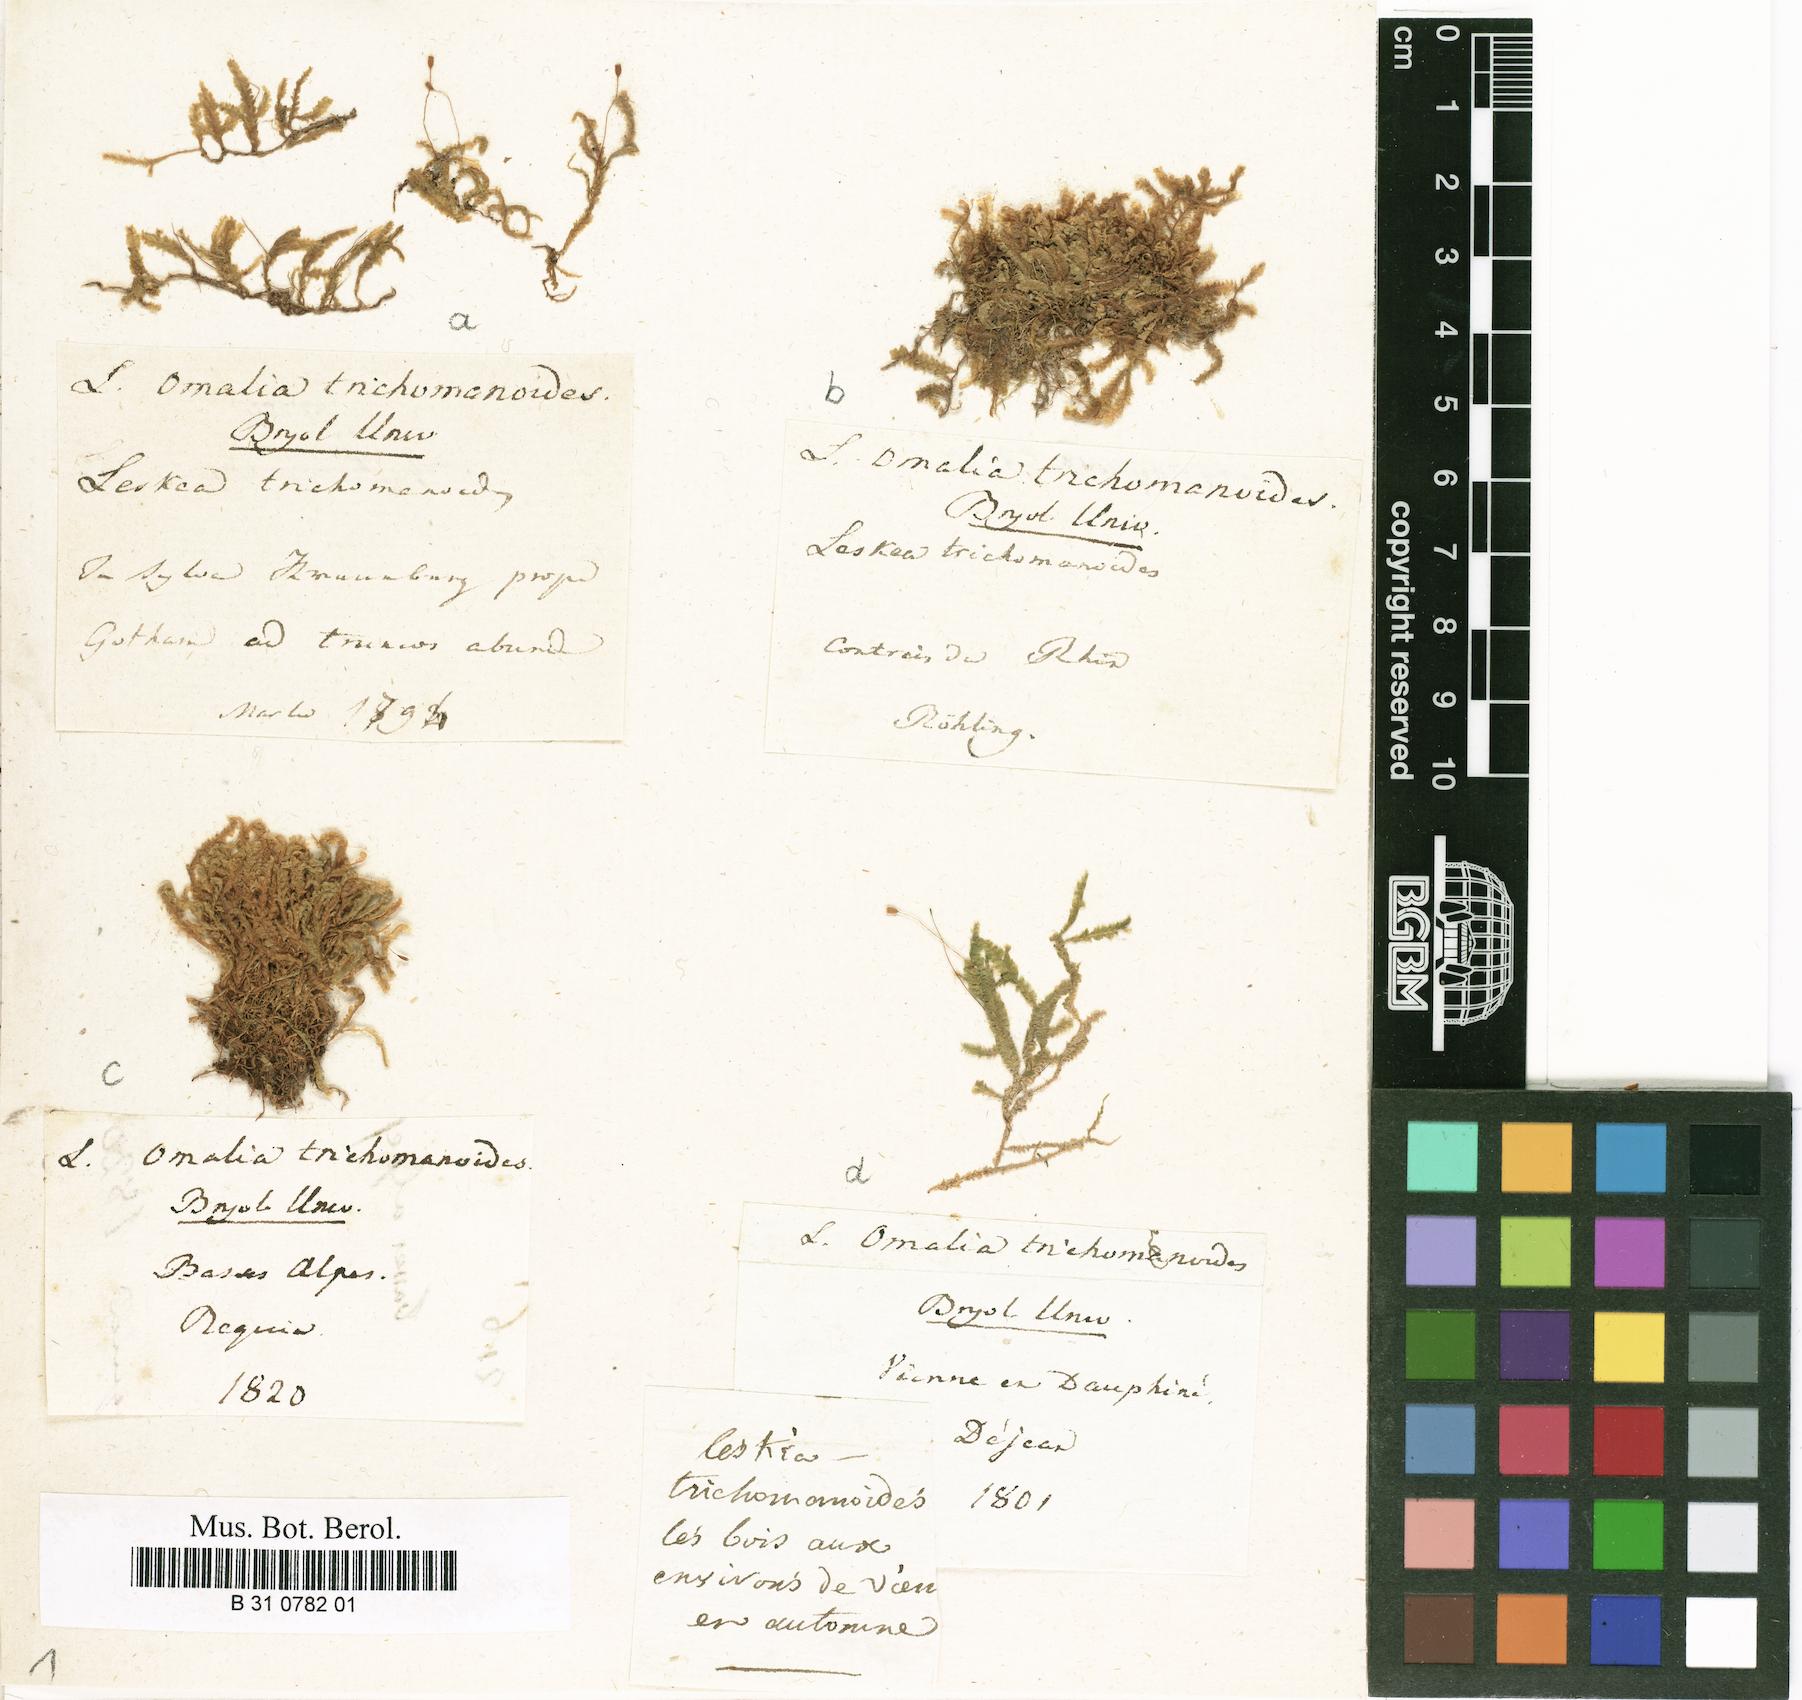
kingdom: Plantae
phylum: Bryophyta
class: Bryopsida
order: Hypnales
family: Neckeraceae
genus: Homalia
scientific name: Homalia trichomanoides
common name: Lime homalia moss
